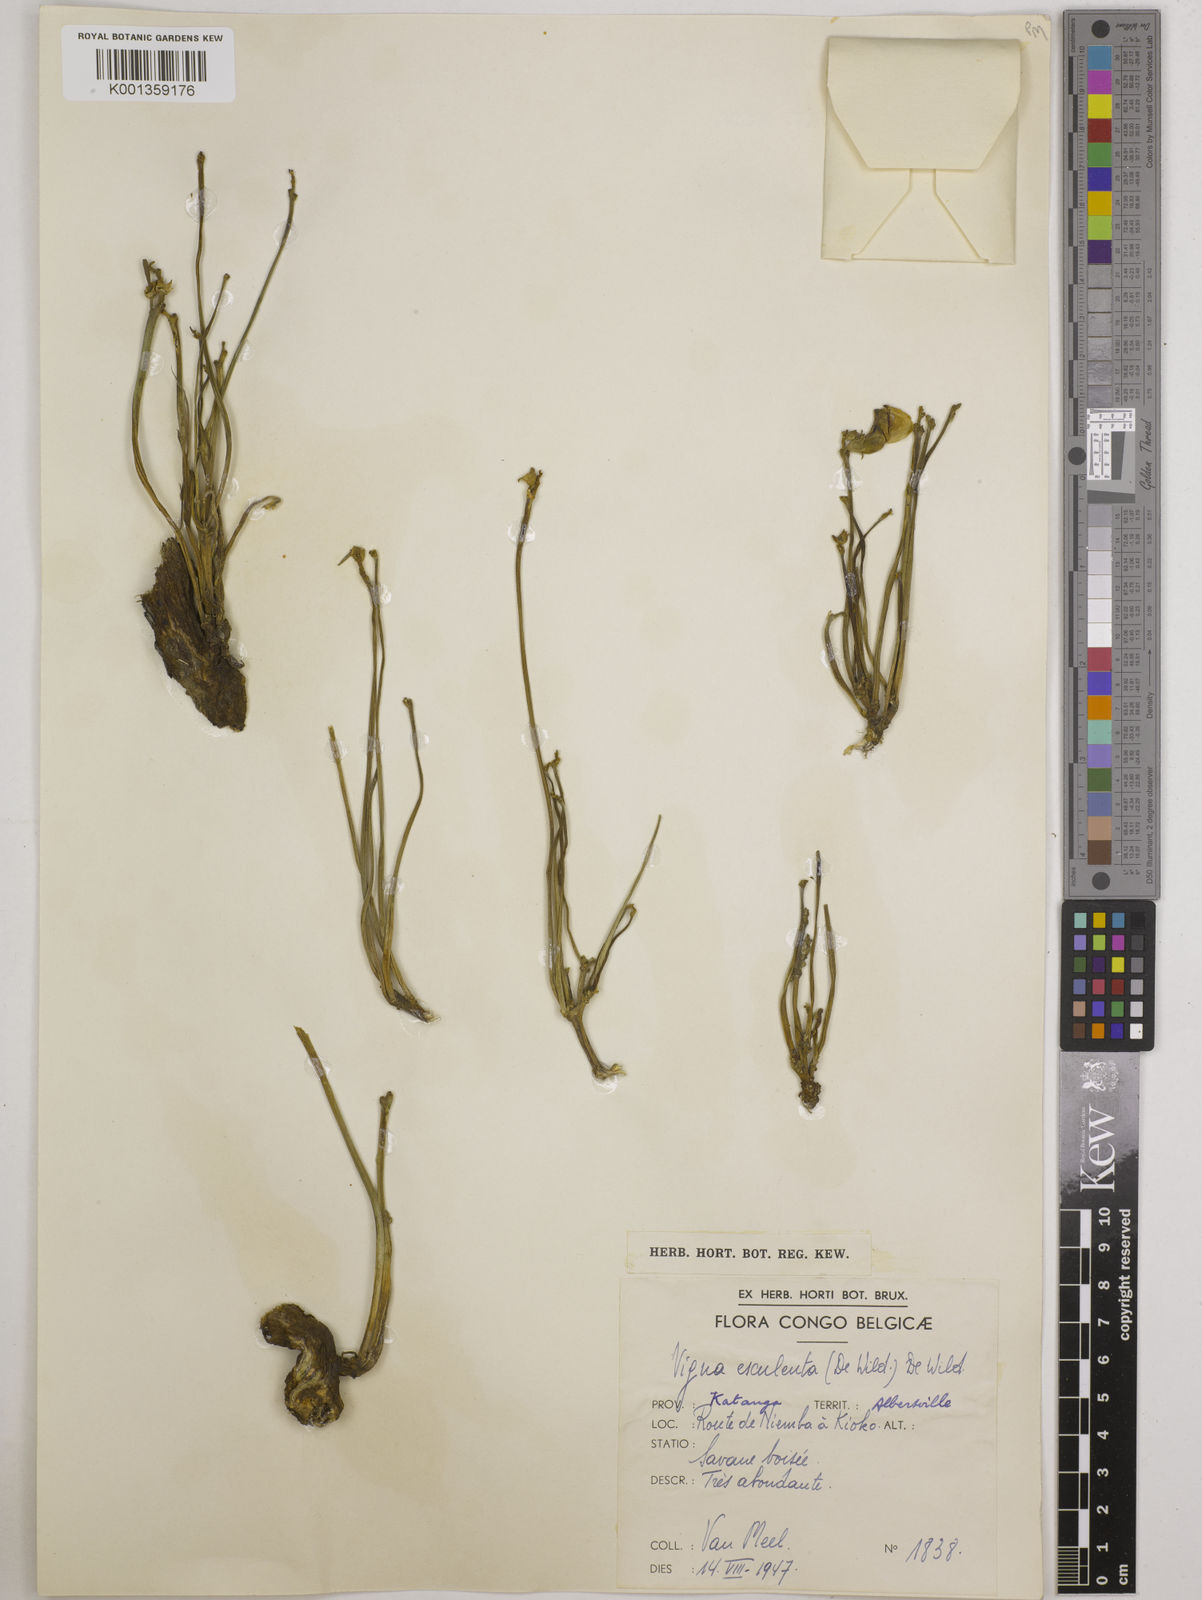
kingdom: Plantae
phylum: Tracheophyta
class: Magnoliopsida
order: Fabales
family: Fabaceae
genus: Vigna
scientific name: Vigna frutescens
